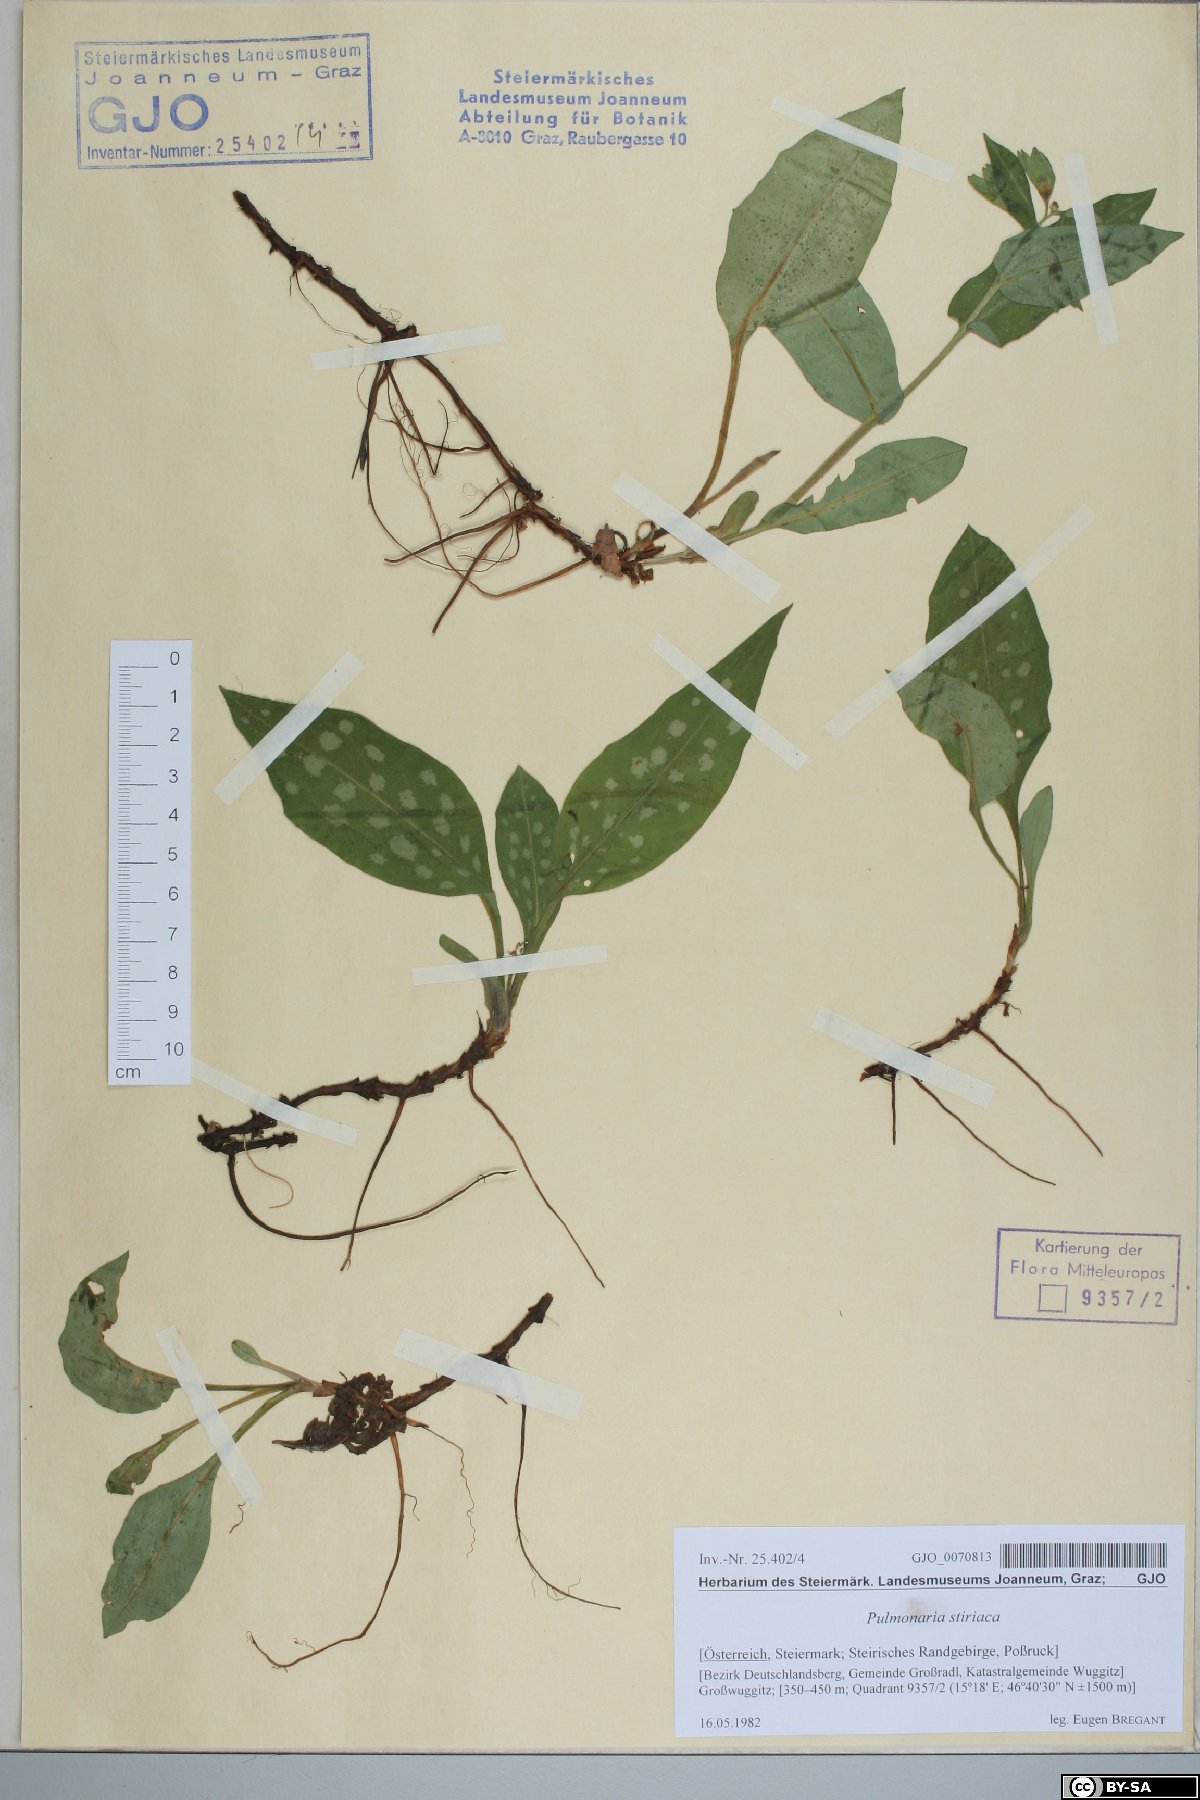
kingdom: Plantae
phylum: Tracheophyta
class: Magnoliopsida
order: Boraginales
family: Boraginaceae
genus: Pulmonaria
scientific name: Pulmonaria stiriaca
